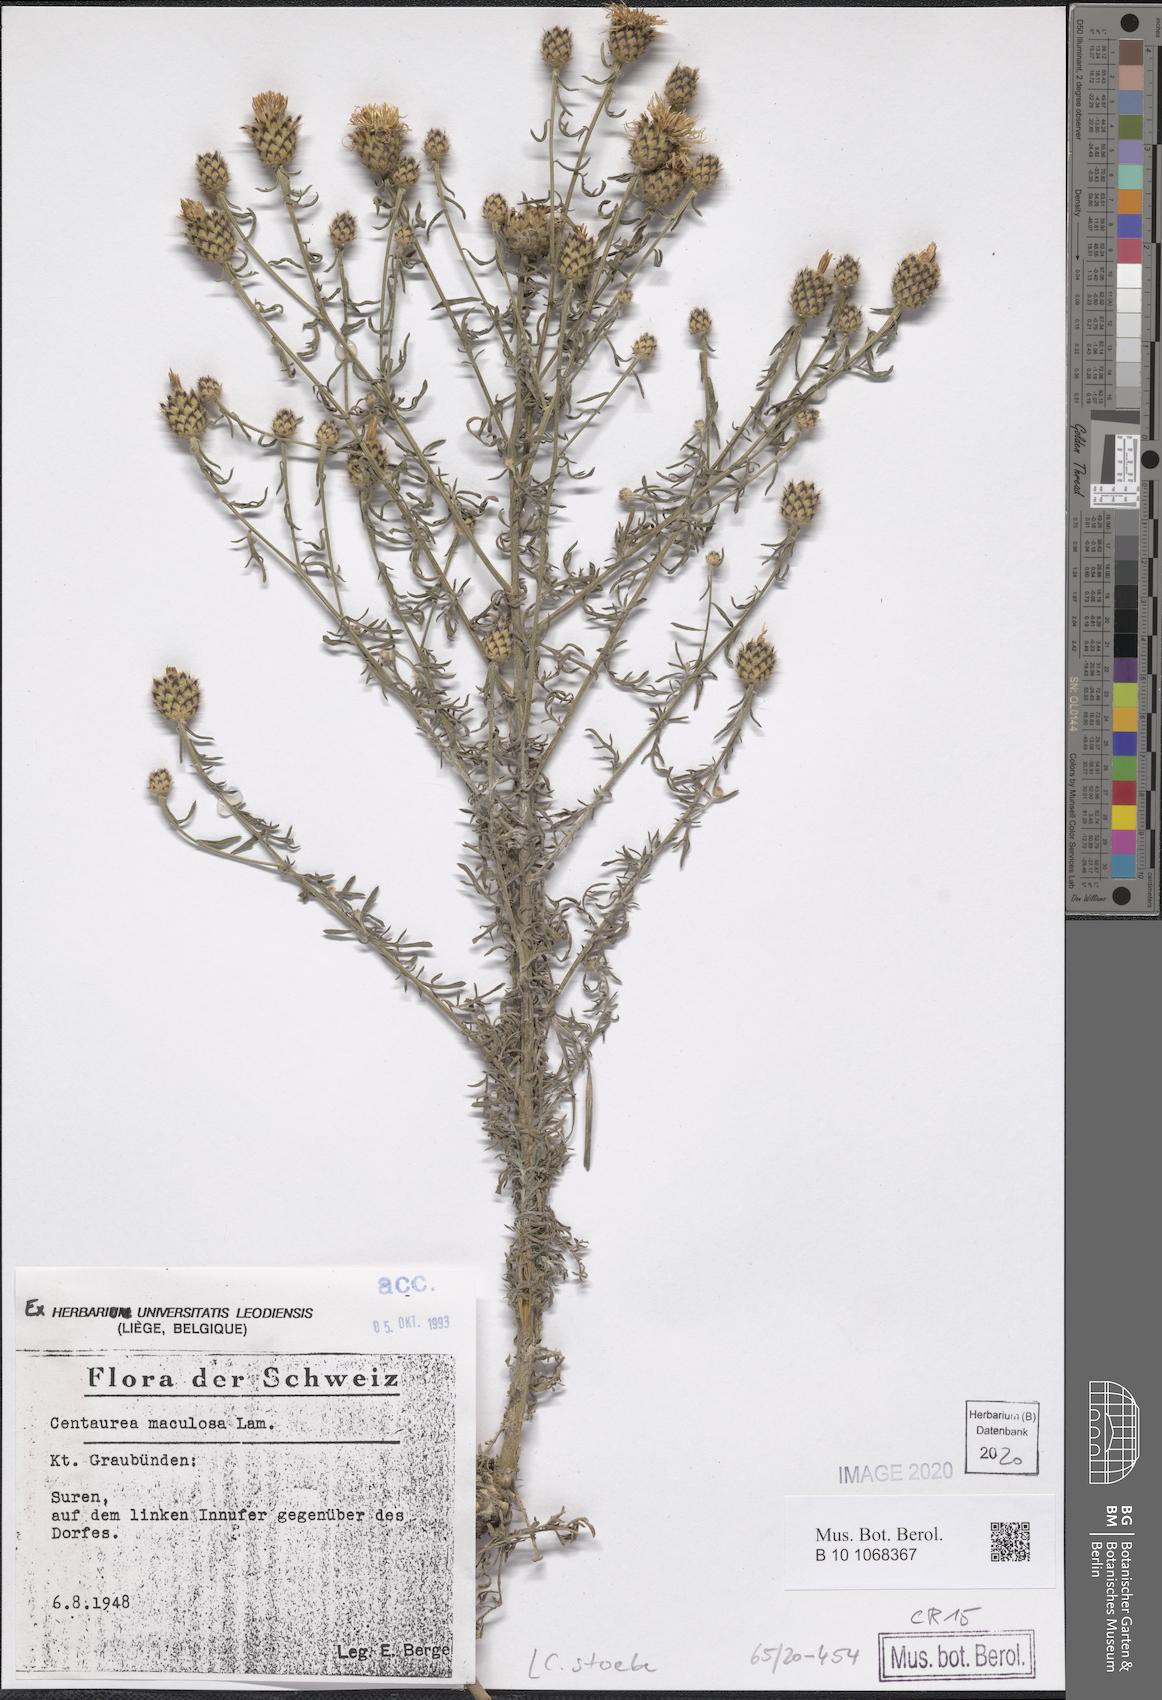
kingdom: Plantae
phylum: Tracheophyta
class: Magnoliopsida
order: Asterales
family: Asteraceae
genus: Centaurea
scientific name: Centaurea stoebe
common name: Spotted knapweed
